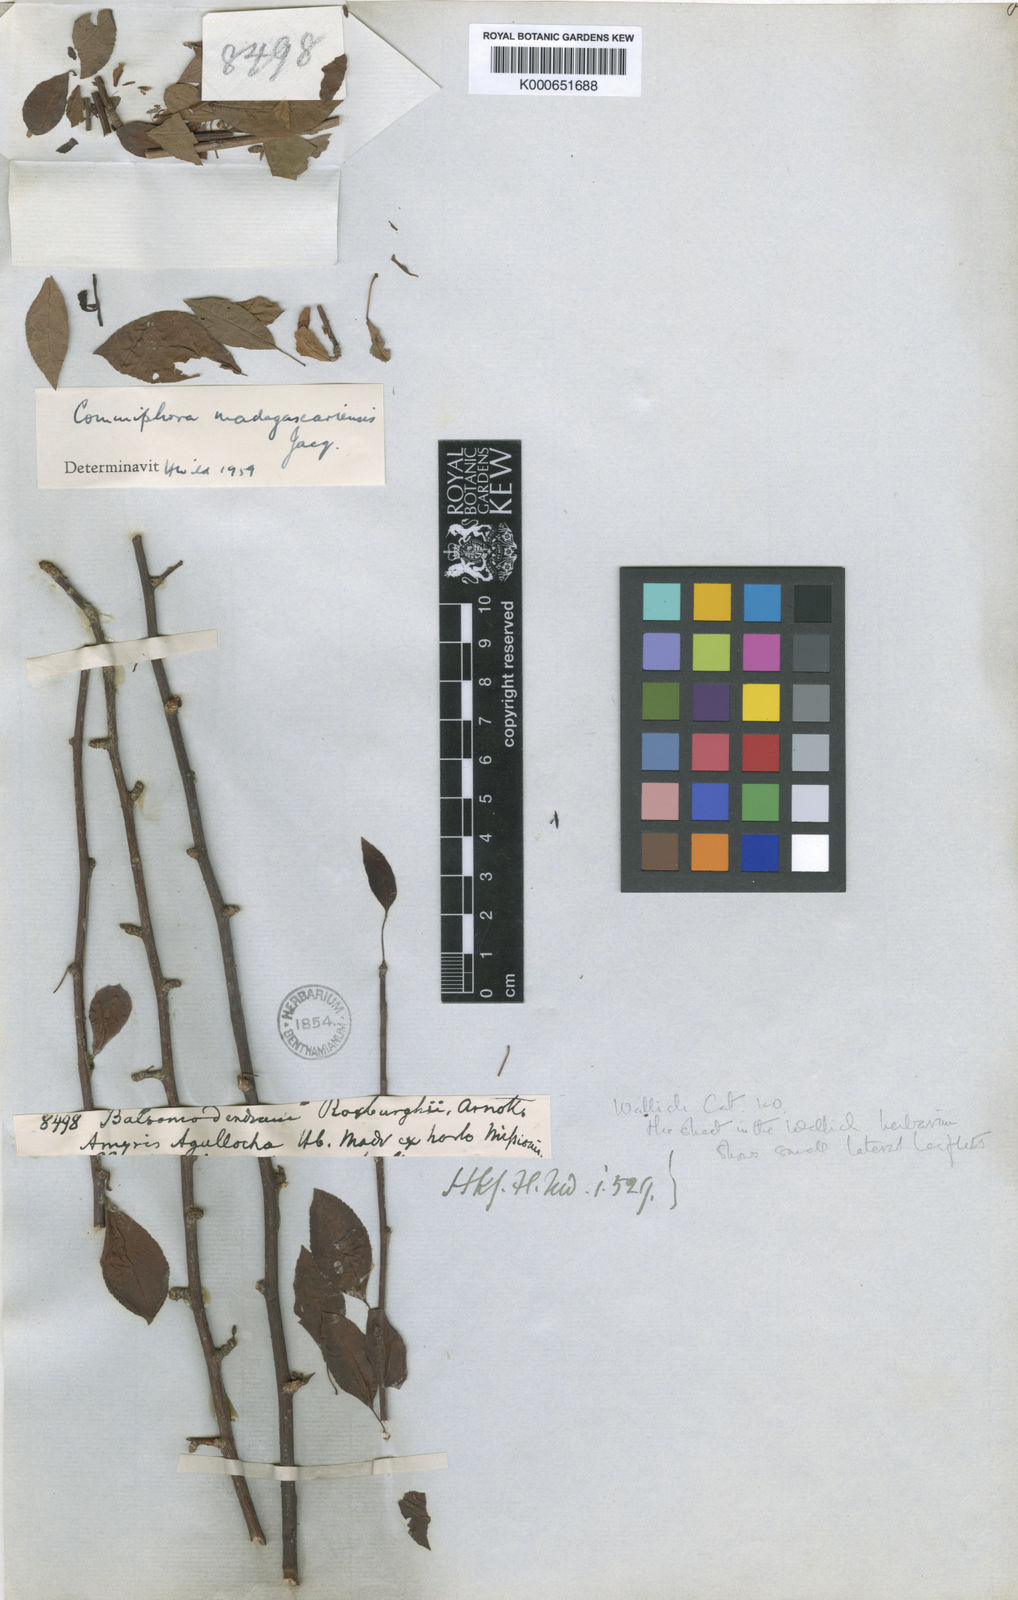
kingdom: Plantae
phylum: Tracheophyta
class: Magnoliopsida
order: Sapindales
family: Burseraceae
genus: Commiphora
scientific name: Commiphora madagascariensis
